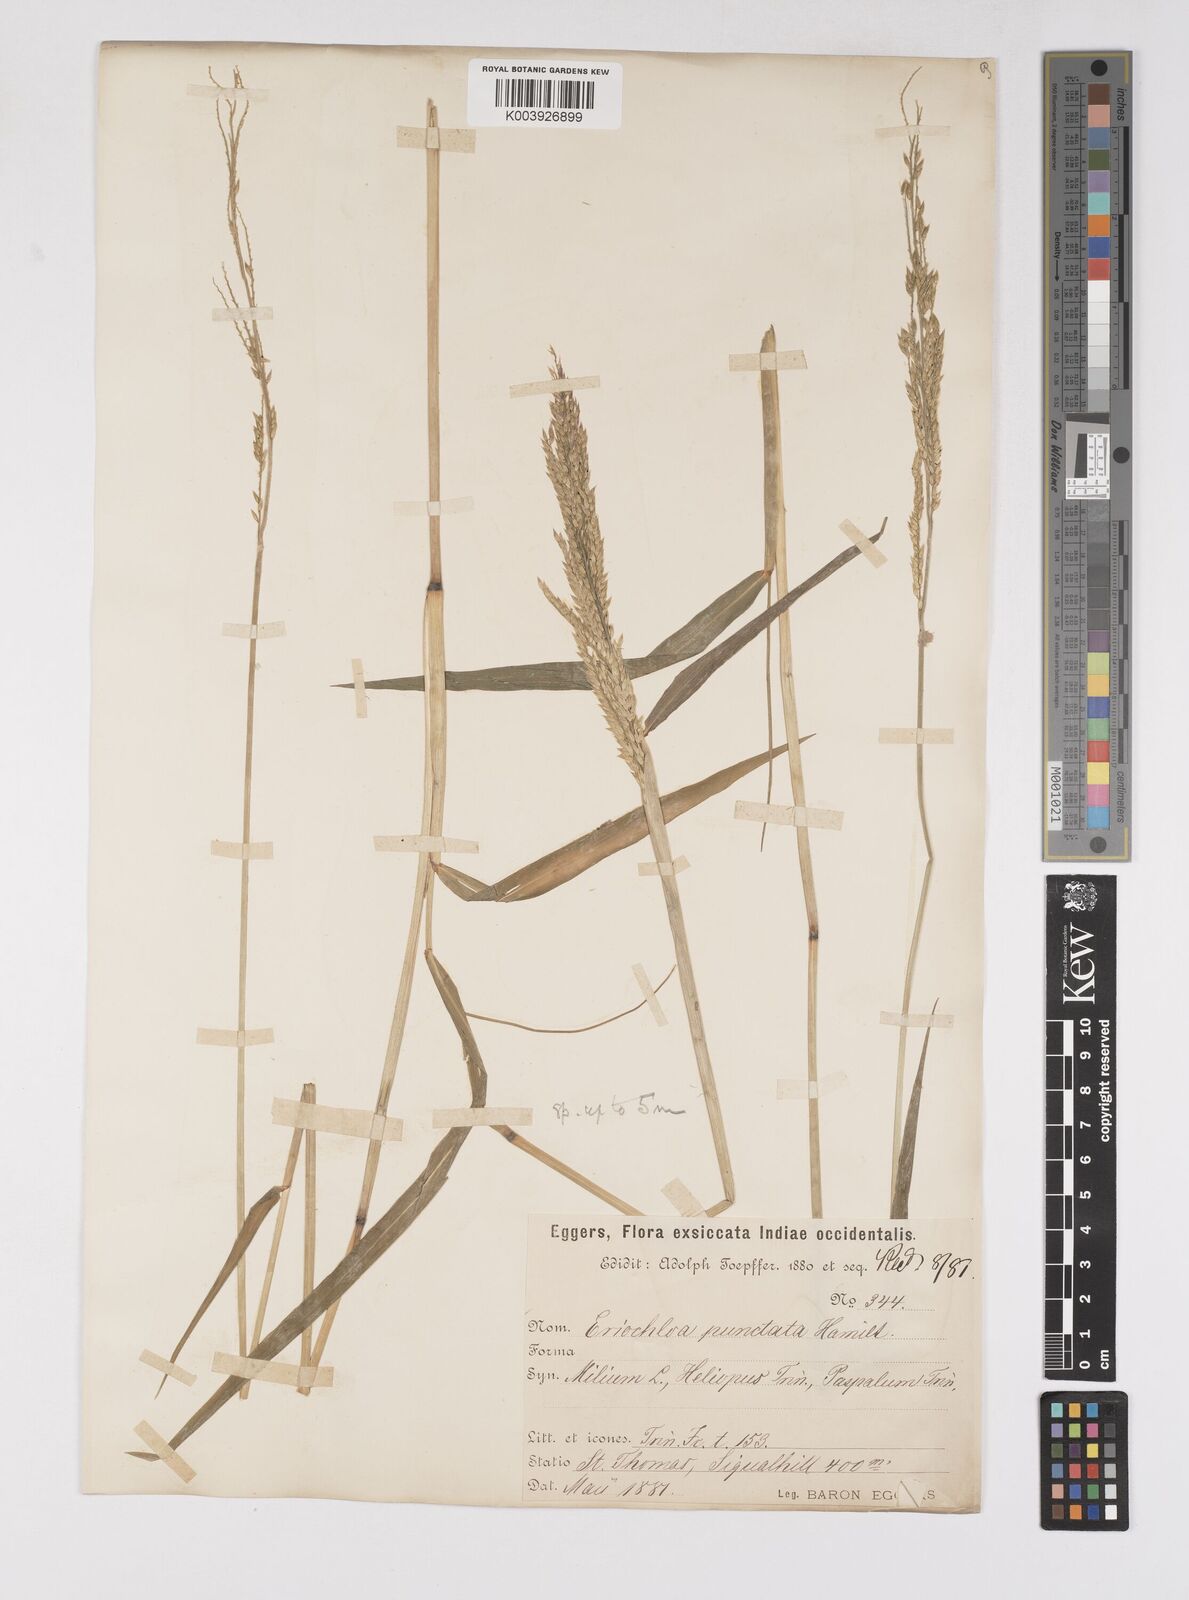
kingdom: Plantae
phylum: Tracheophyta
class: Liliopsida
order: Poales
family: Poaceae
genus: Eriochloa
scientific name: Eriochloa punctata
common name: Louisiana cupgrass
